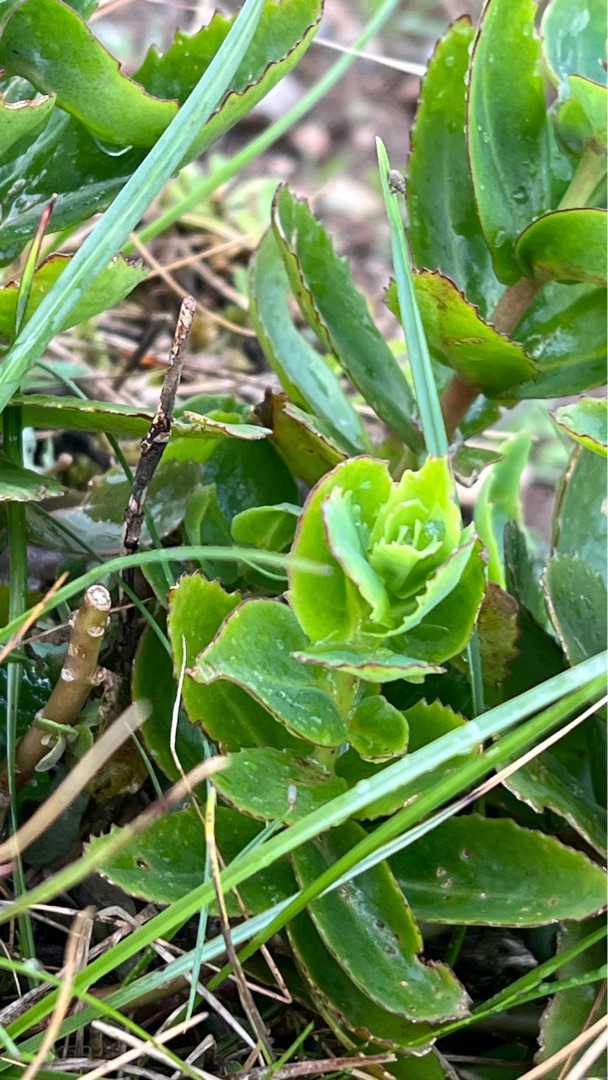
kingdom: Plantae
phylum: Tracheophyta
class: Magnoliopsida
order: Saxifragales
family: Crassulaceae
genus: Hylotelephium
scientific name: Hylotelephium telephium
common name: Sankthansurt
